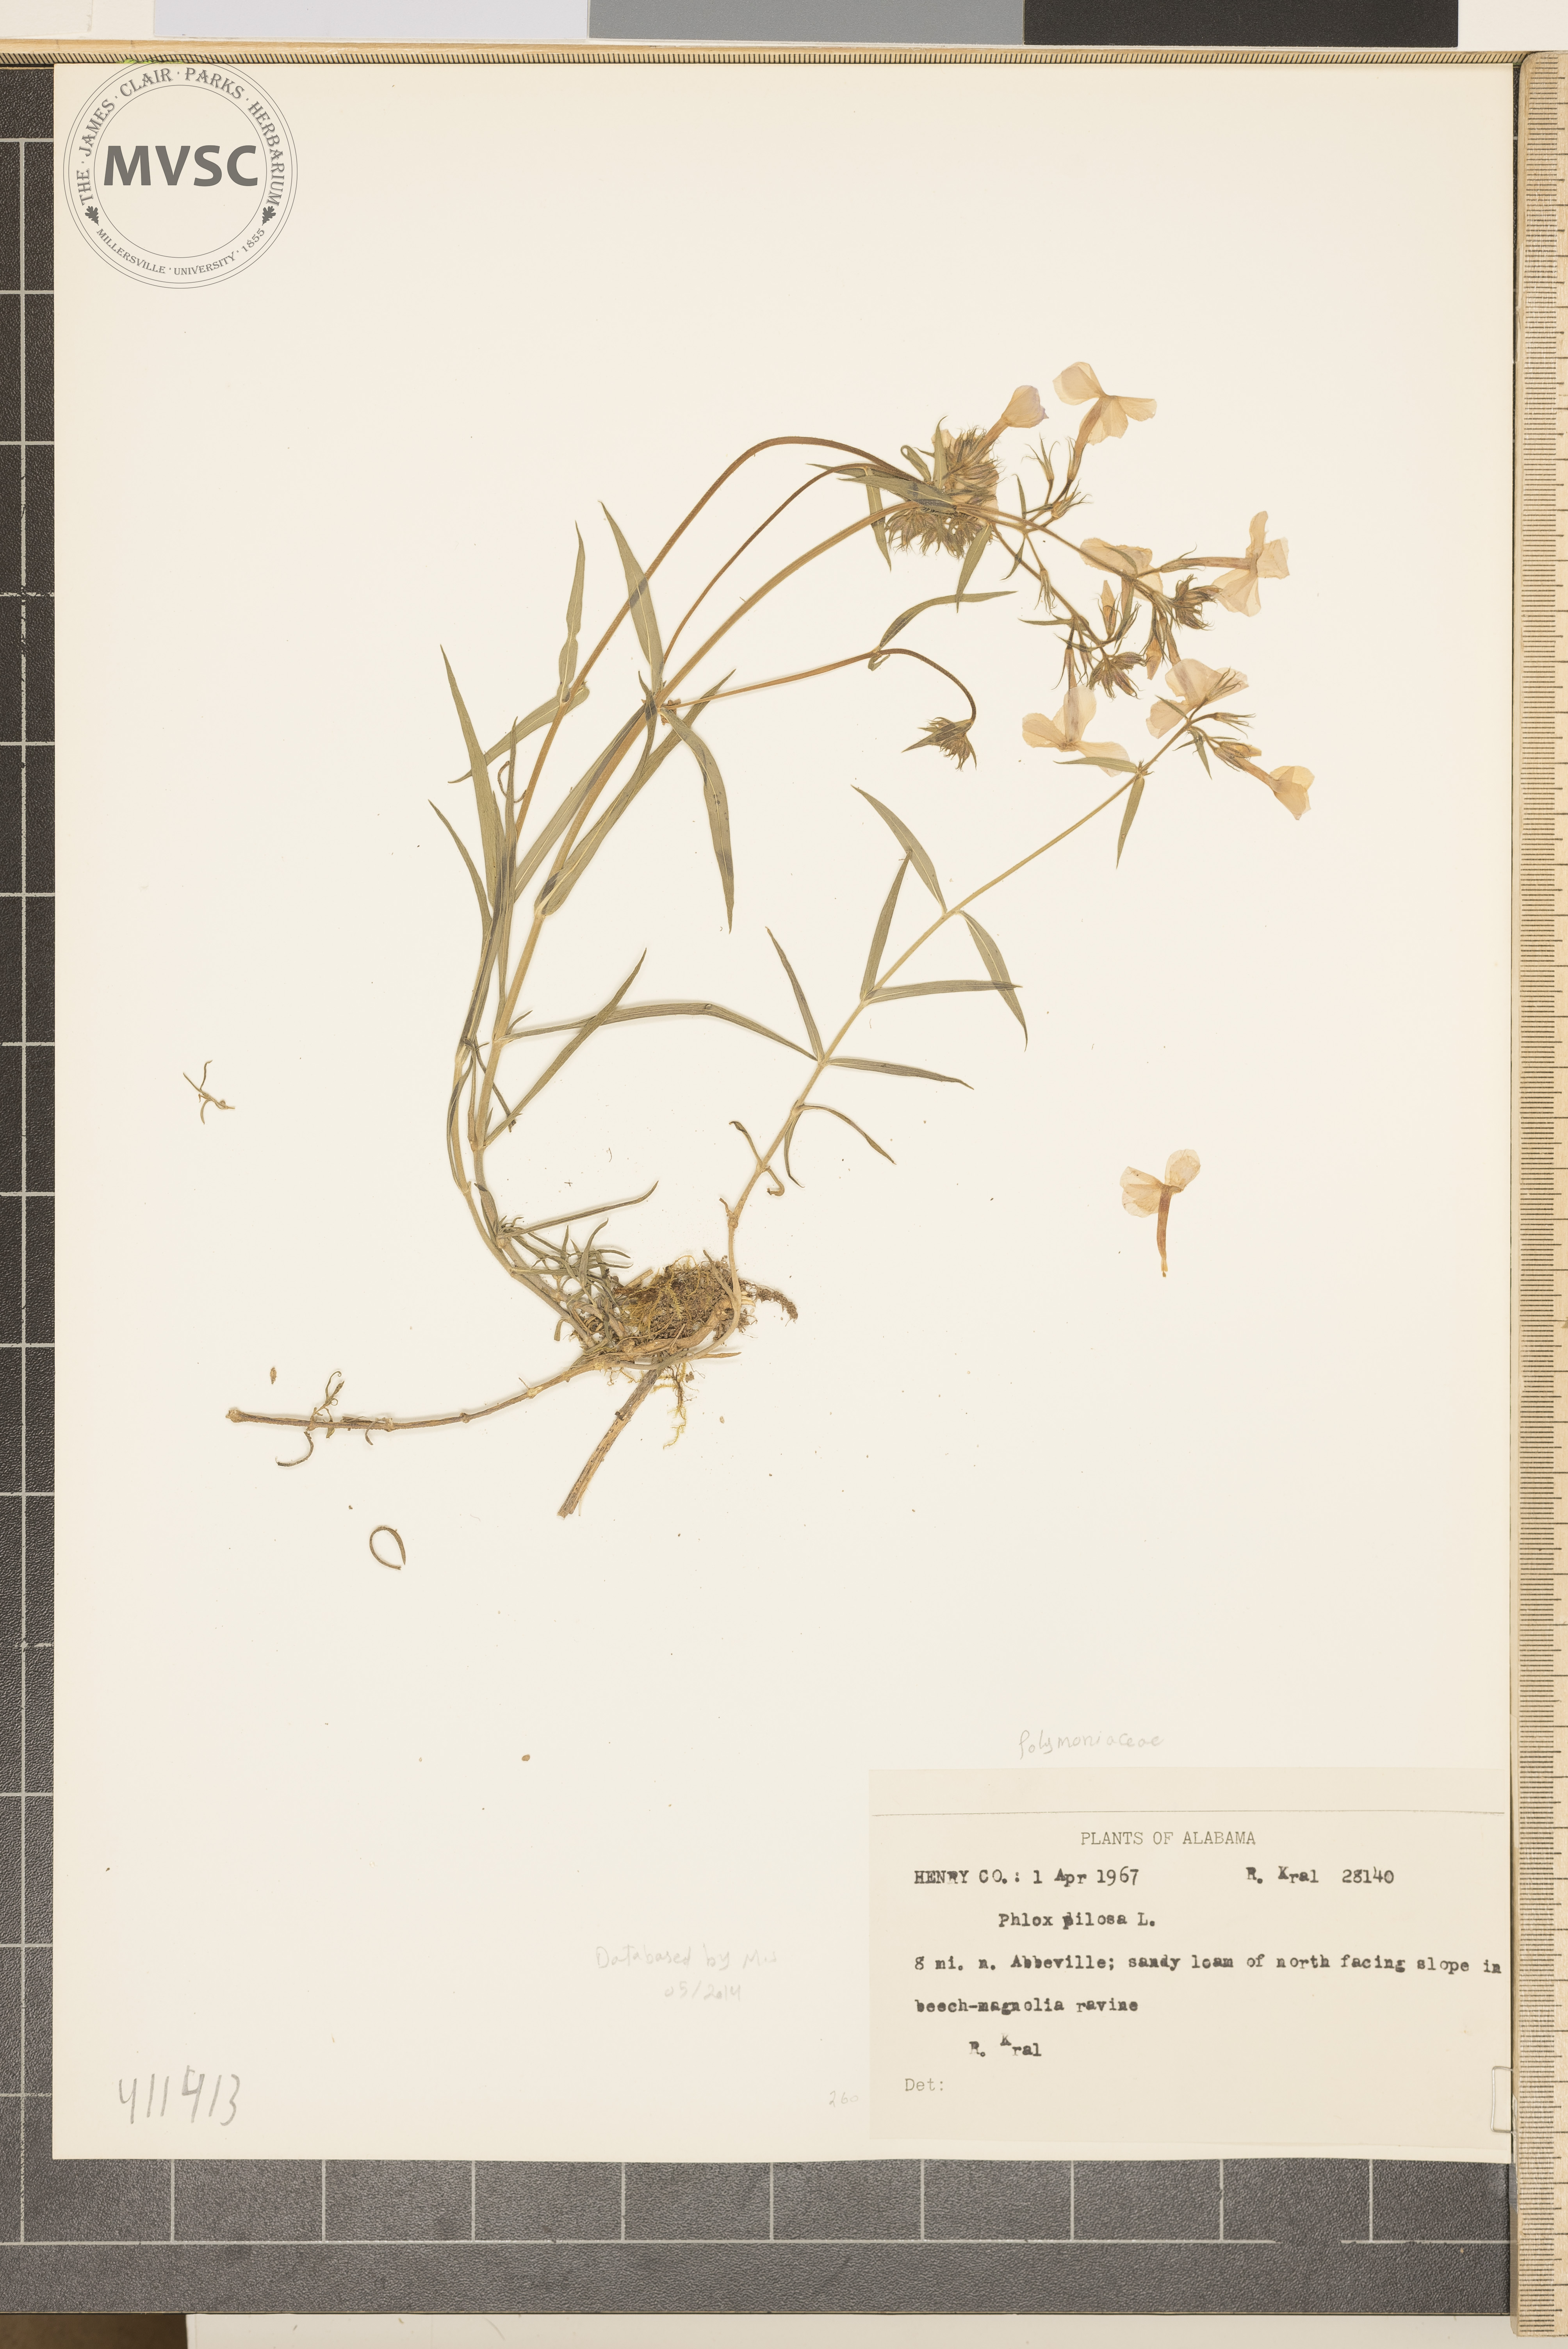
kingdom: Plantae
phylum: Tracheophyta
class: Magnoliopsida
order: Ericales
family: Polemoniaceae
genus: Phlox
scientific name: Phlox pilosa
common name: Prairie phlox
